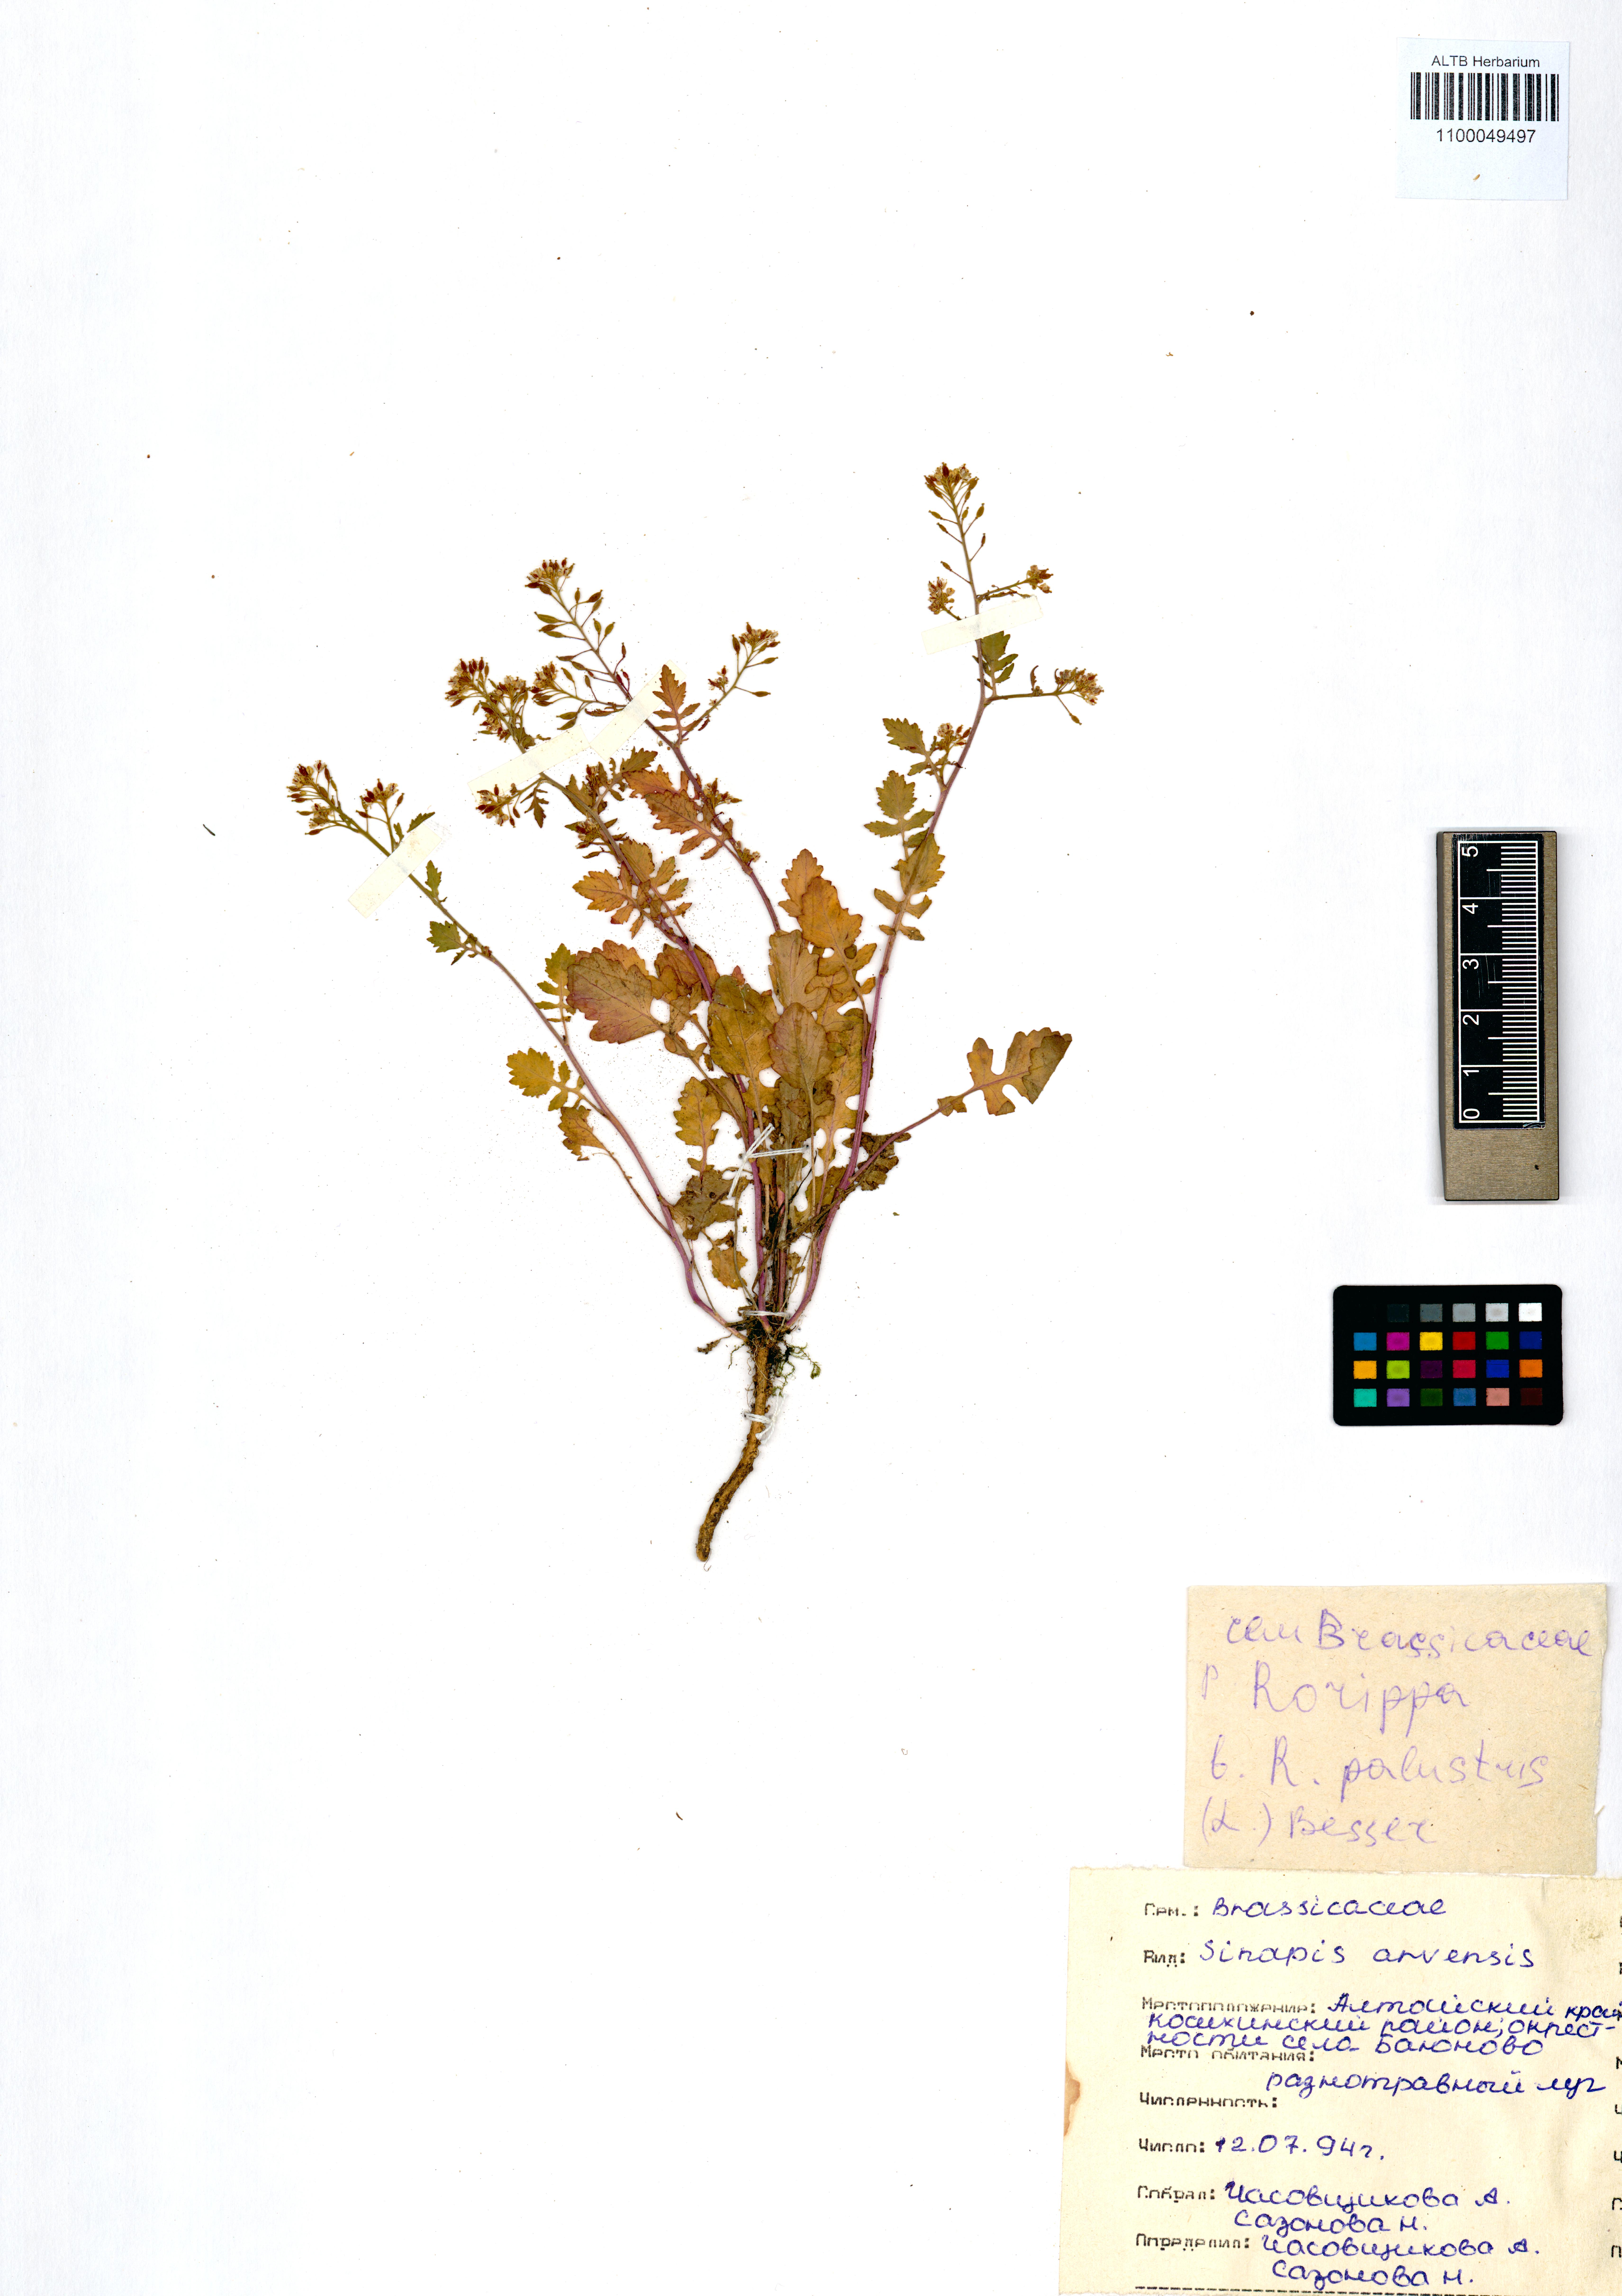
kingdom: Plantae
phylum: Tracheophyta
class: Magnoliopsida
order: Brassicales
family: Brassicaceae
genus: Rorippa
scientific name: Rorippa palustris
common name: Marsh yellow-cress
